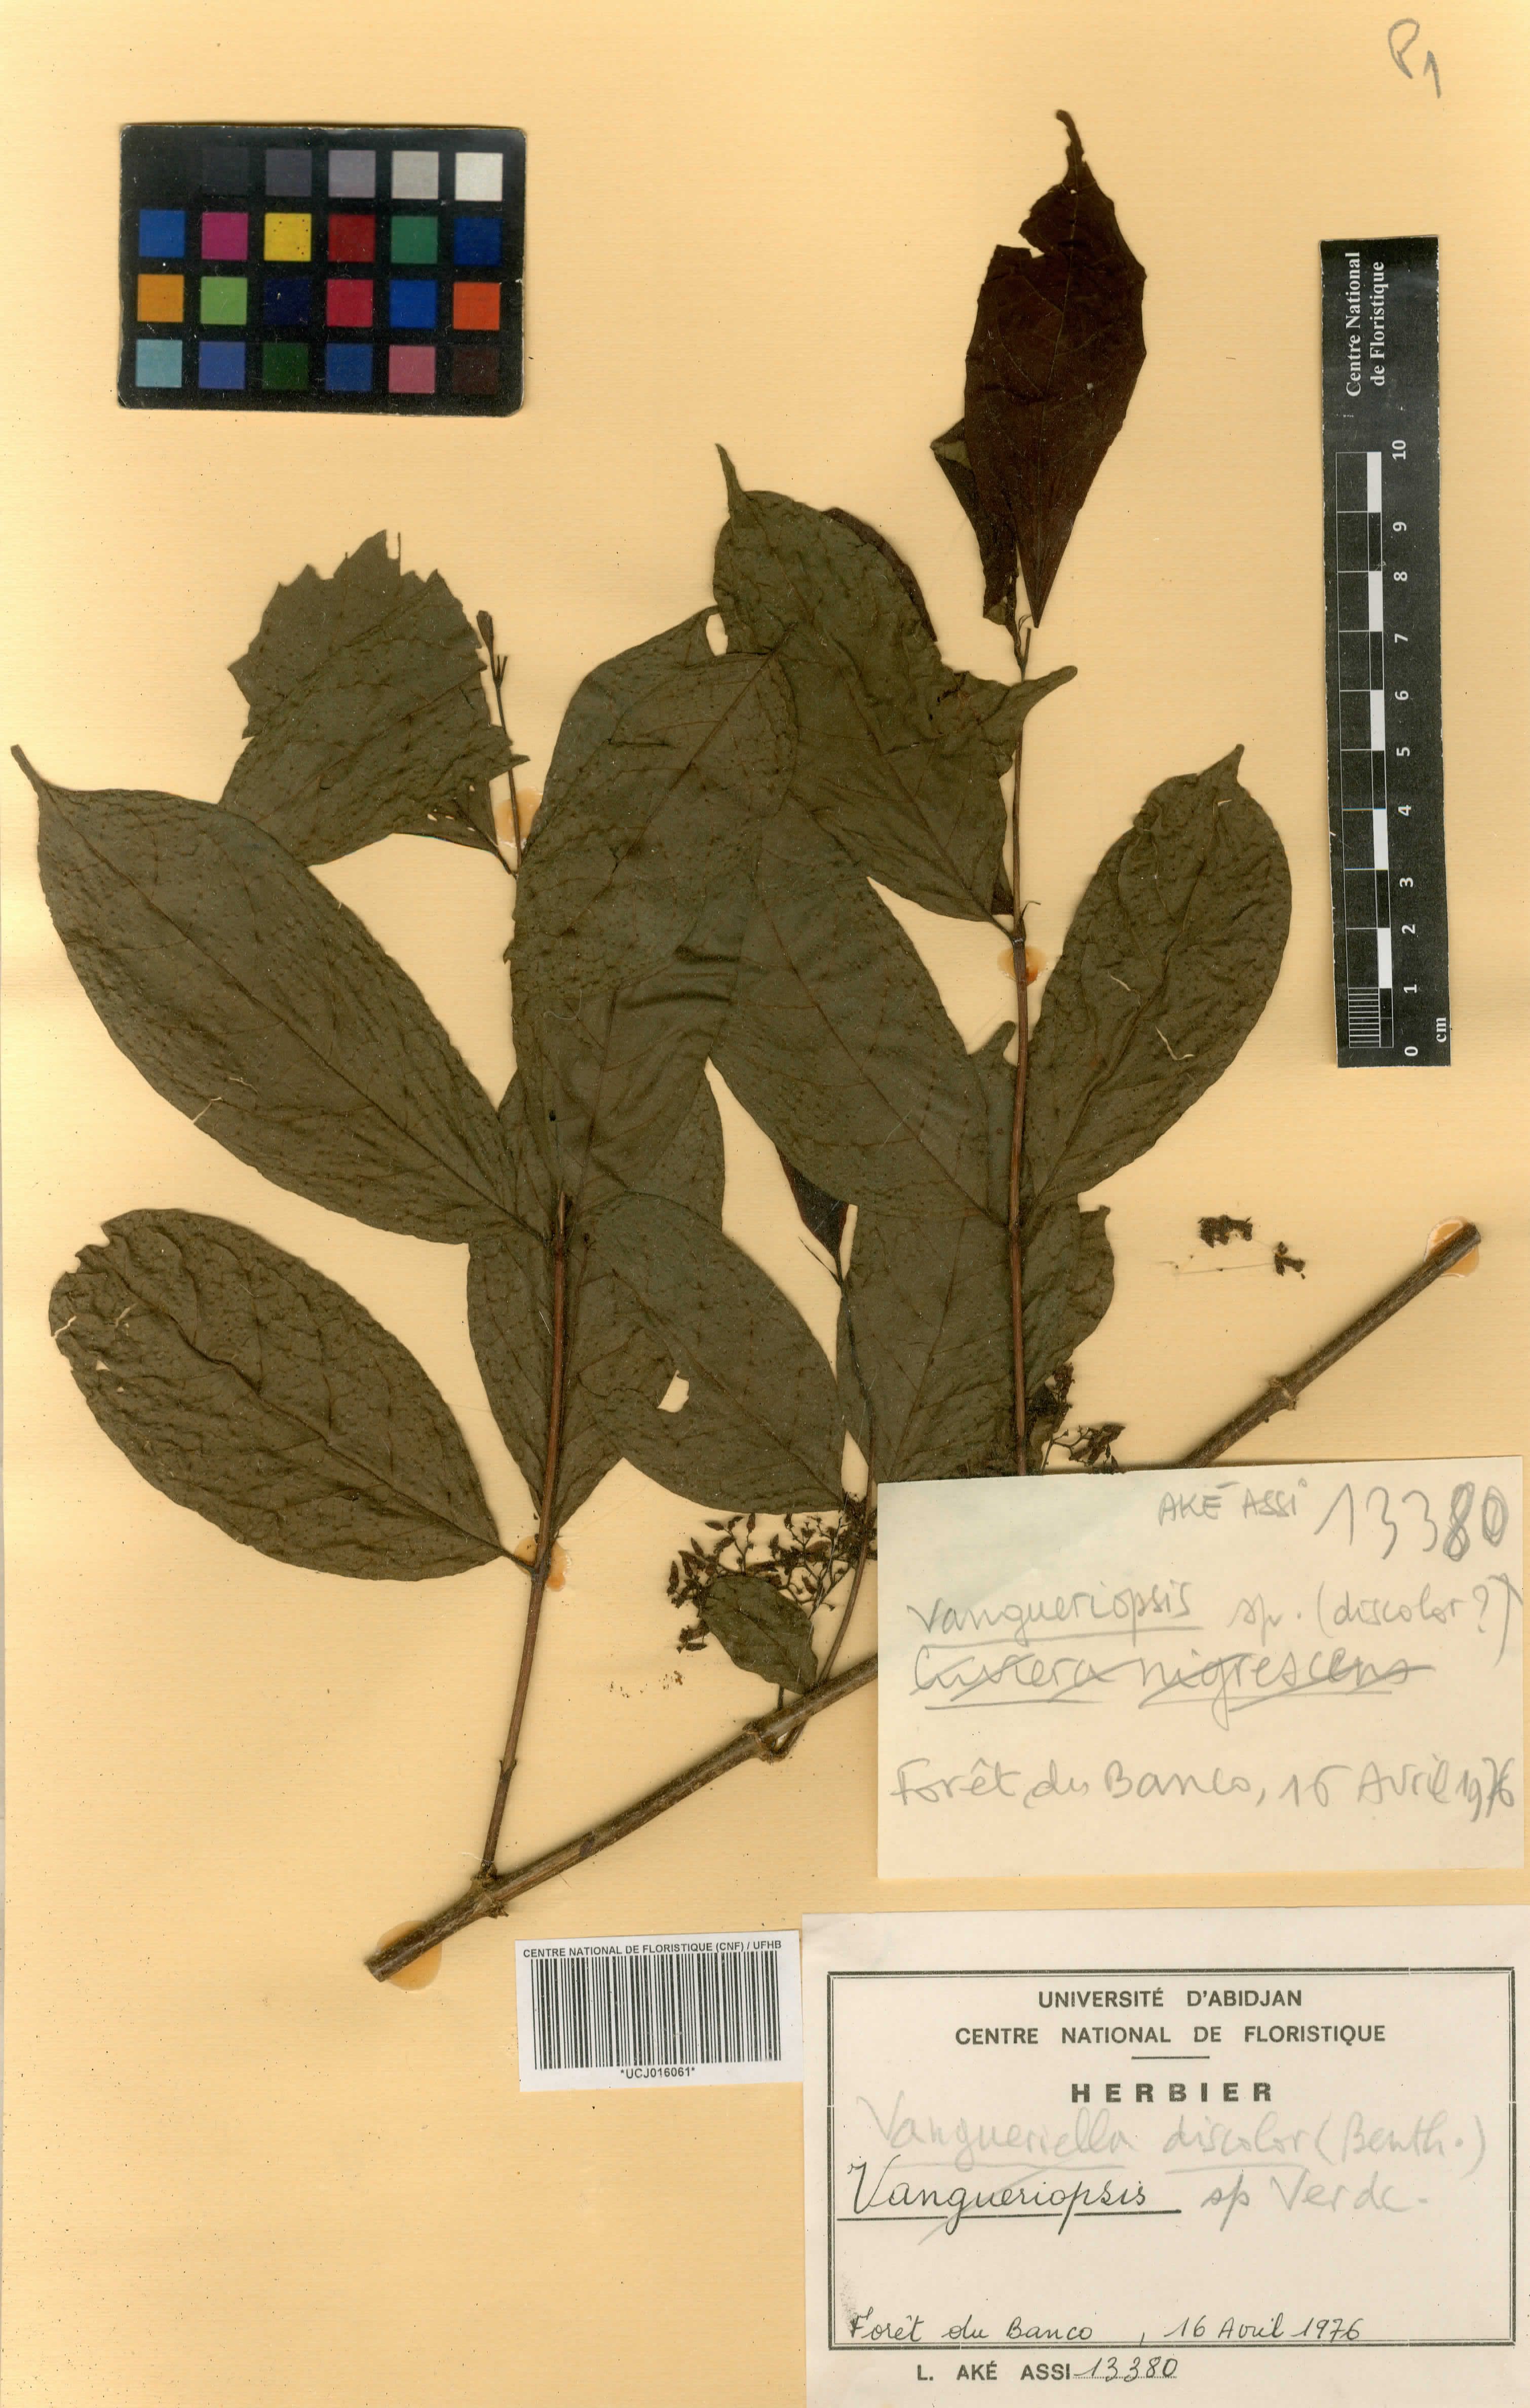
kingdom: Plantae
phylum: Tracheophyta
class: Magnoliopsida
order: Gentianales
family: Rubiaceae
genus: Vangueriella
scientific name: Vangueriella discolor
